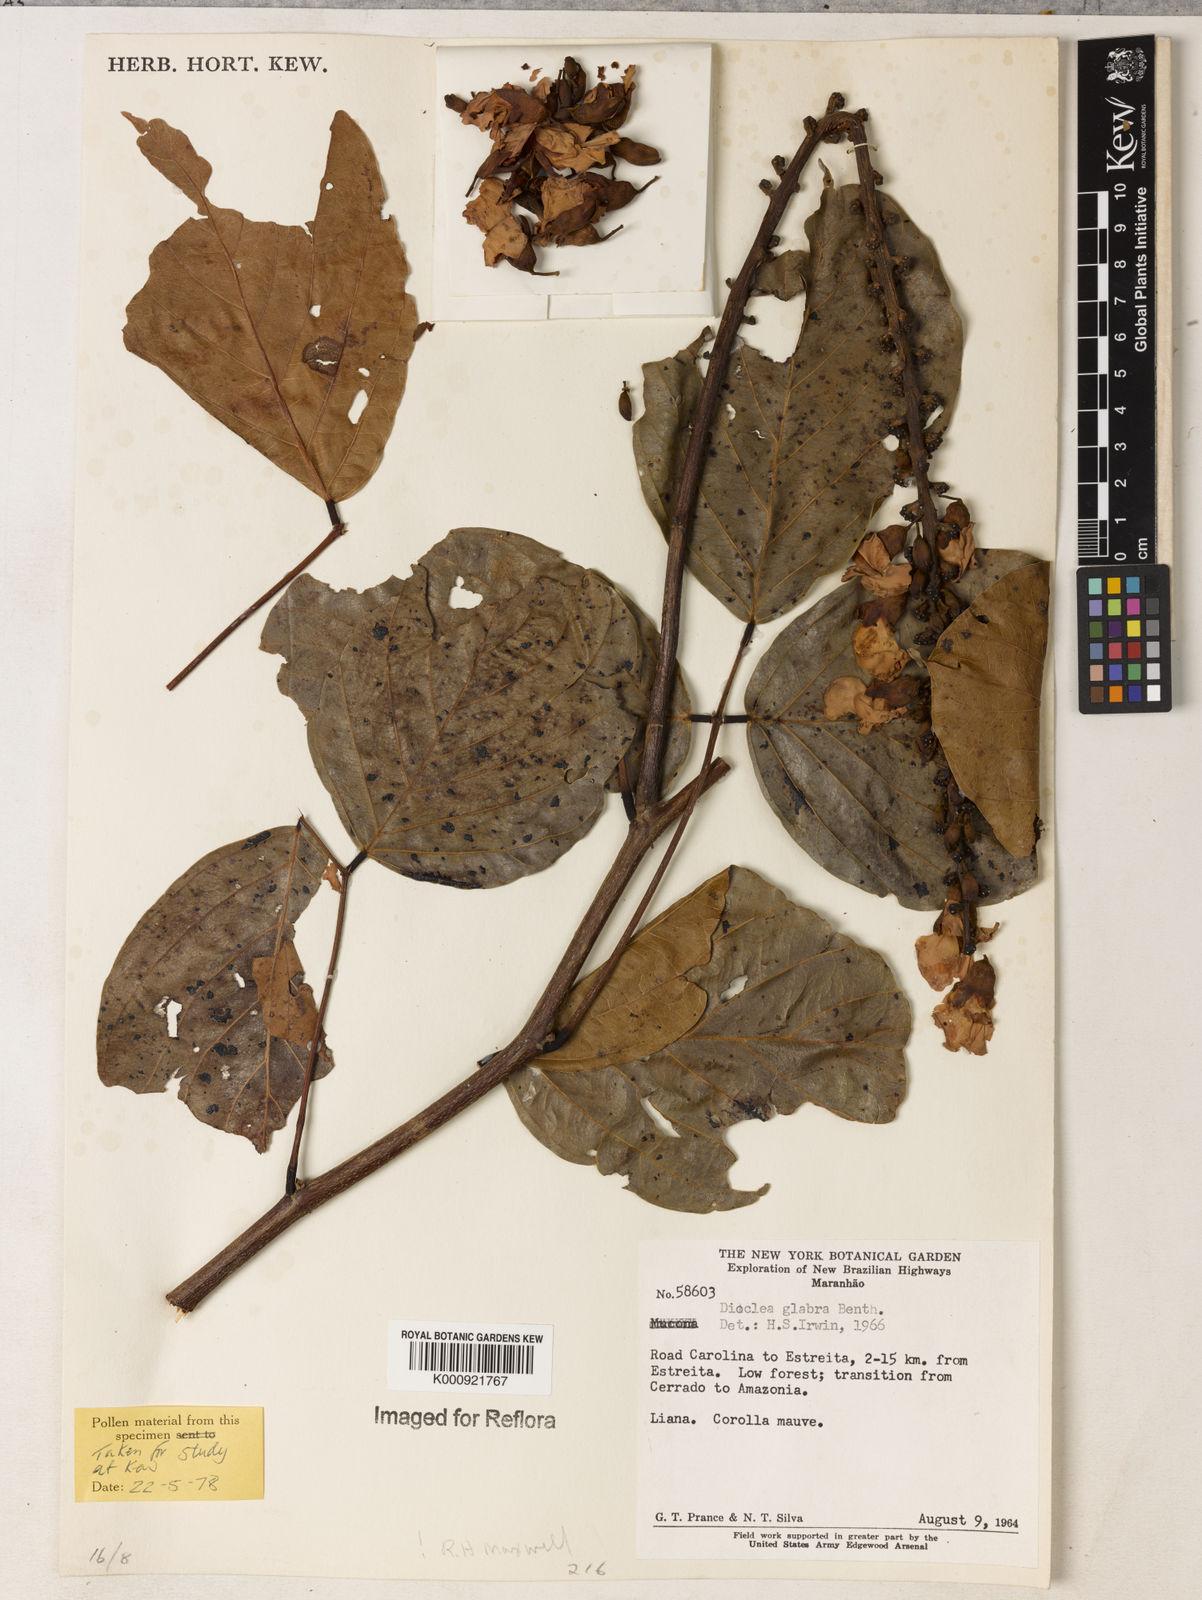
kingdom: Plantae
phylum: Tracheophyta
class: Magnoliopsida
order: Fabales
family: Fabaceae
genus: Macropsychanthus
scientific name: Macropsychanthus glaber
